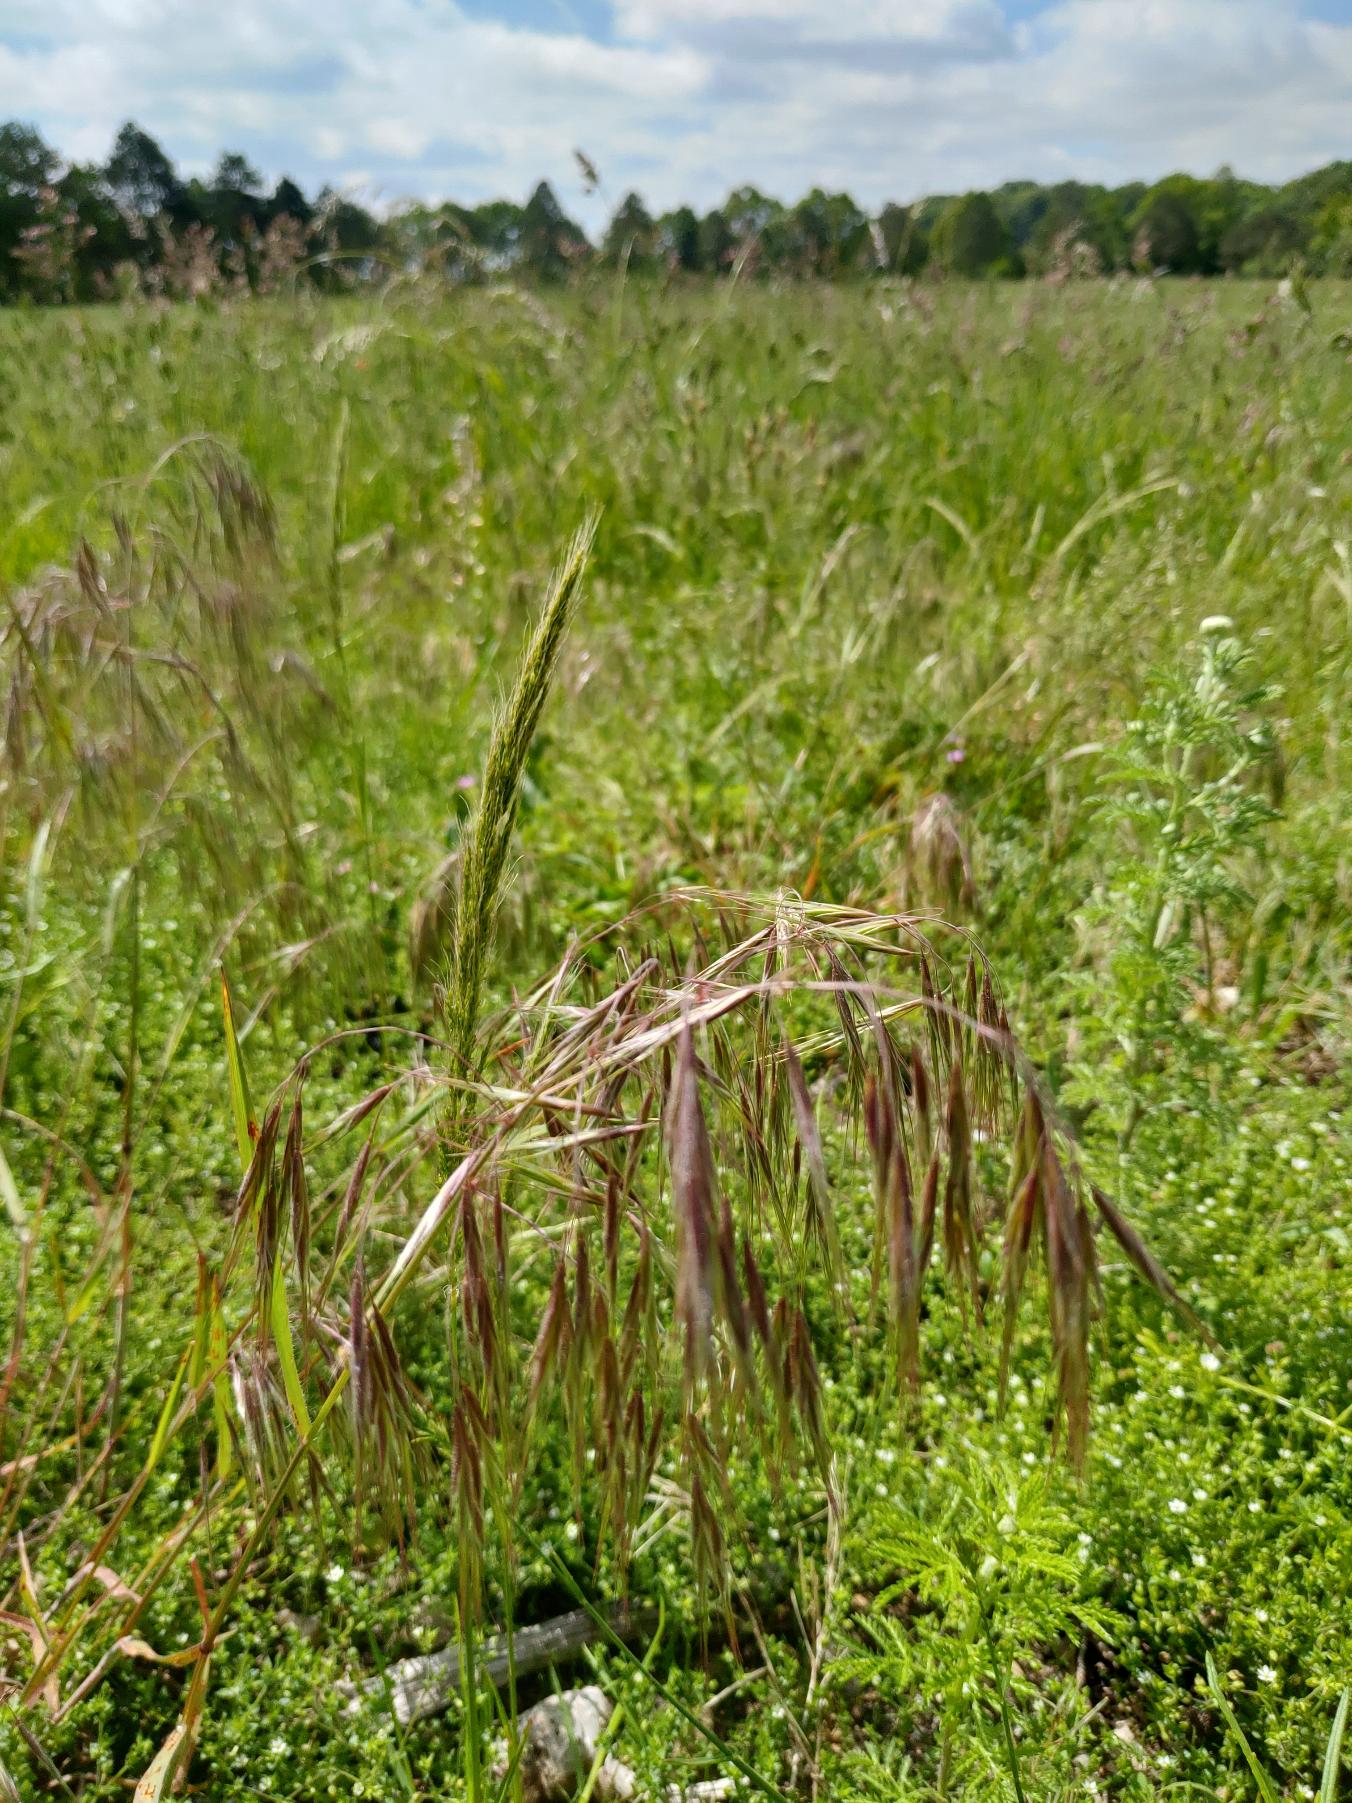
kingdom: Plantae
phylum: Tracheophyta
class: Liliopsida
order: Poales
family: Poaceae
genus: Bromus
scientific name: Bromus tectorum
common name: Tag-hejre
